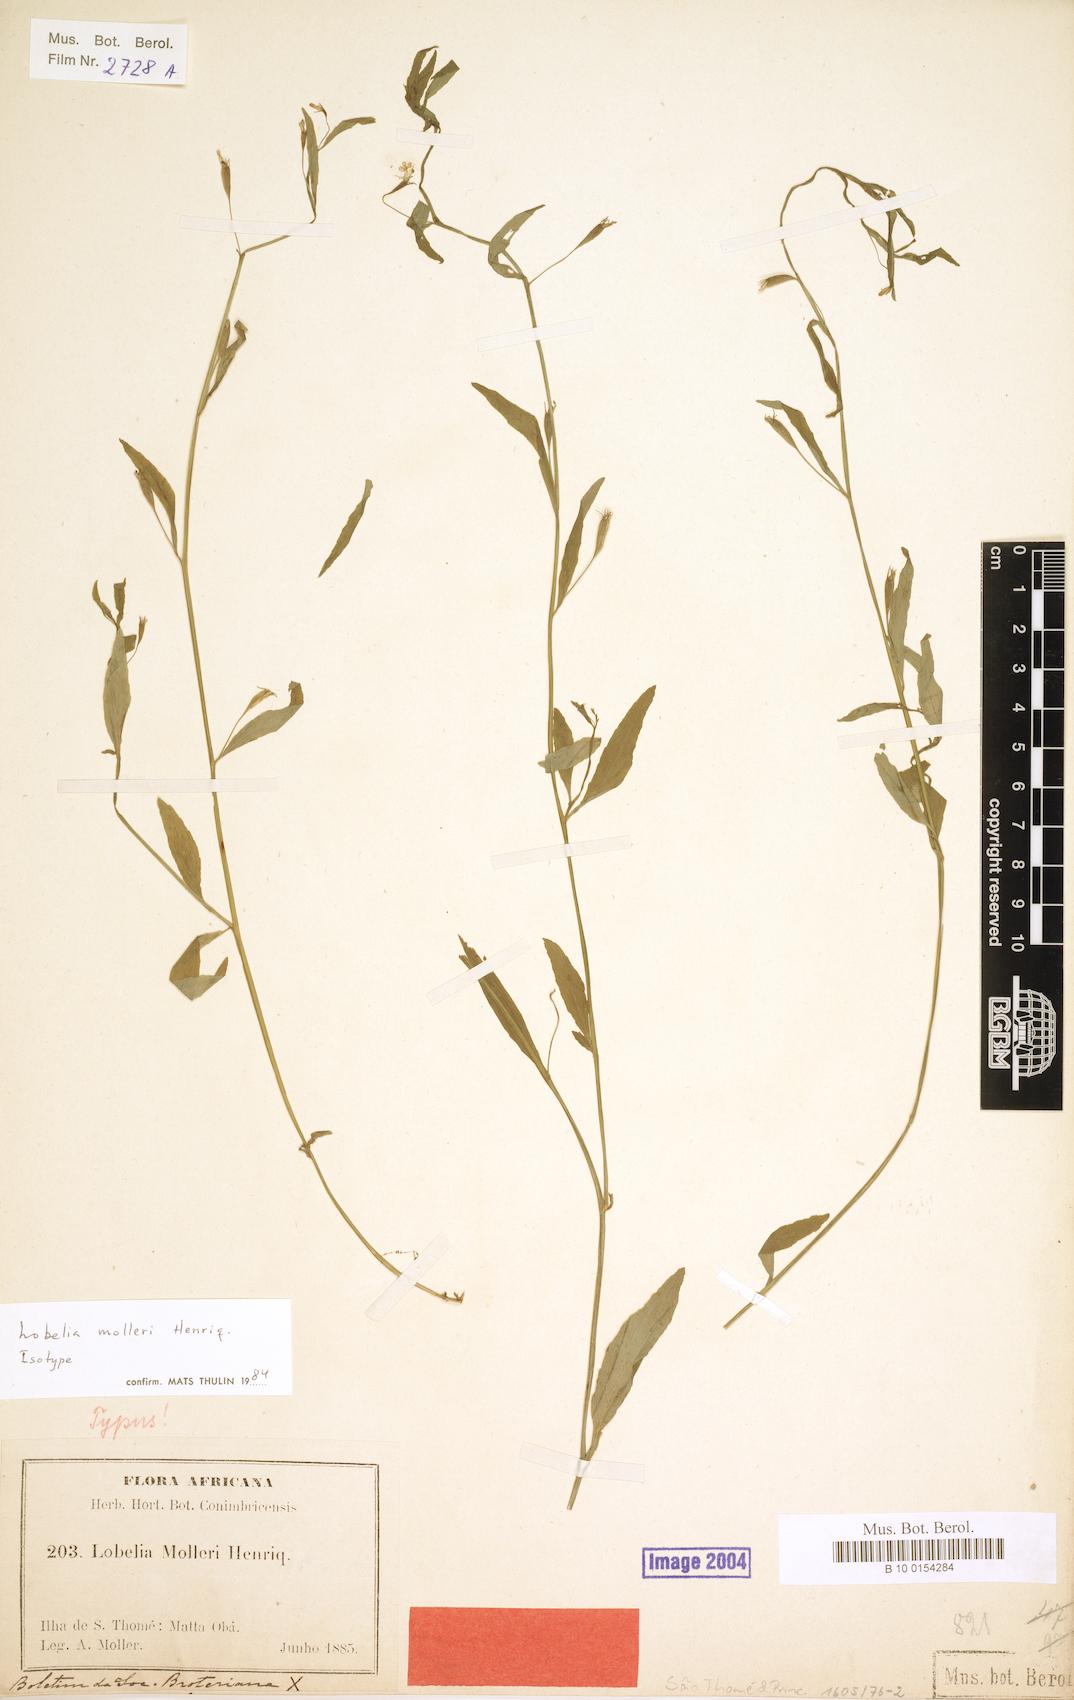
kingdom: Plantae
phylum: Tracheophyta
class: Magnoliopsida
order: Asterales
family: Campanulaceae
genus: Lobelia
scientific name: Lobelia molleri
